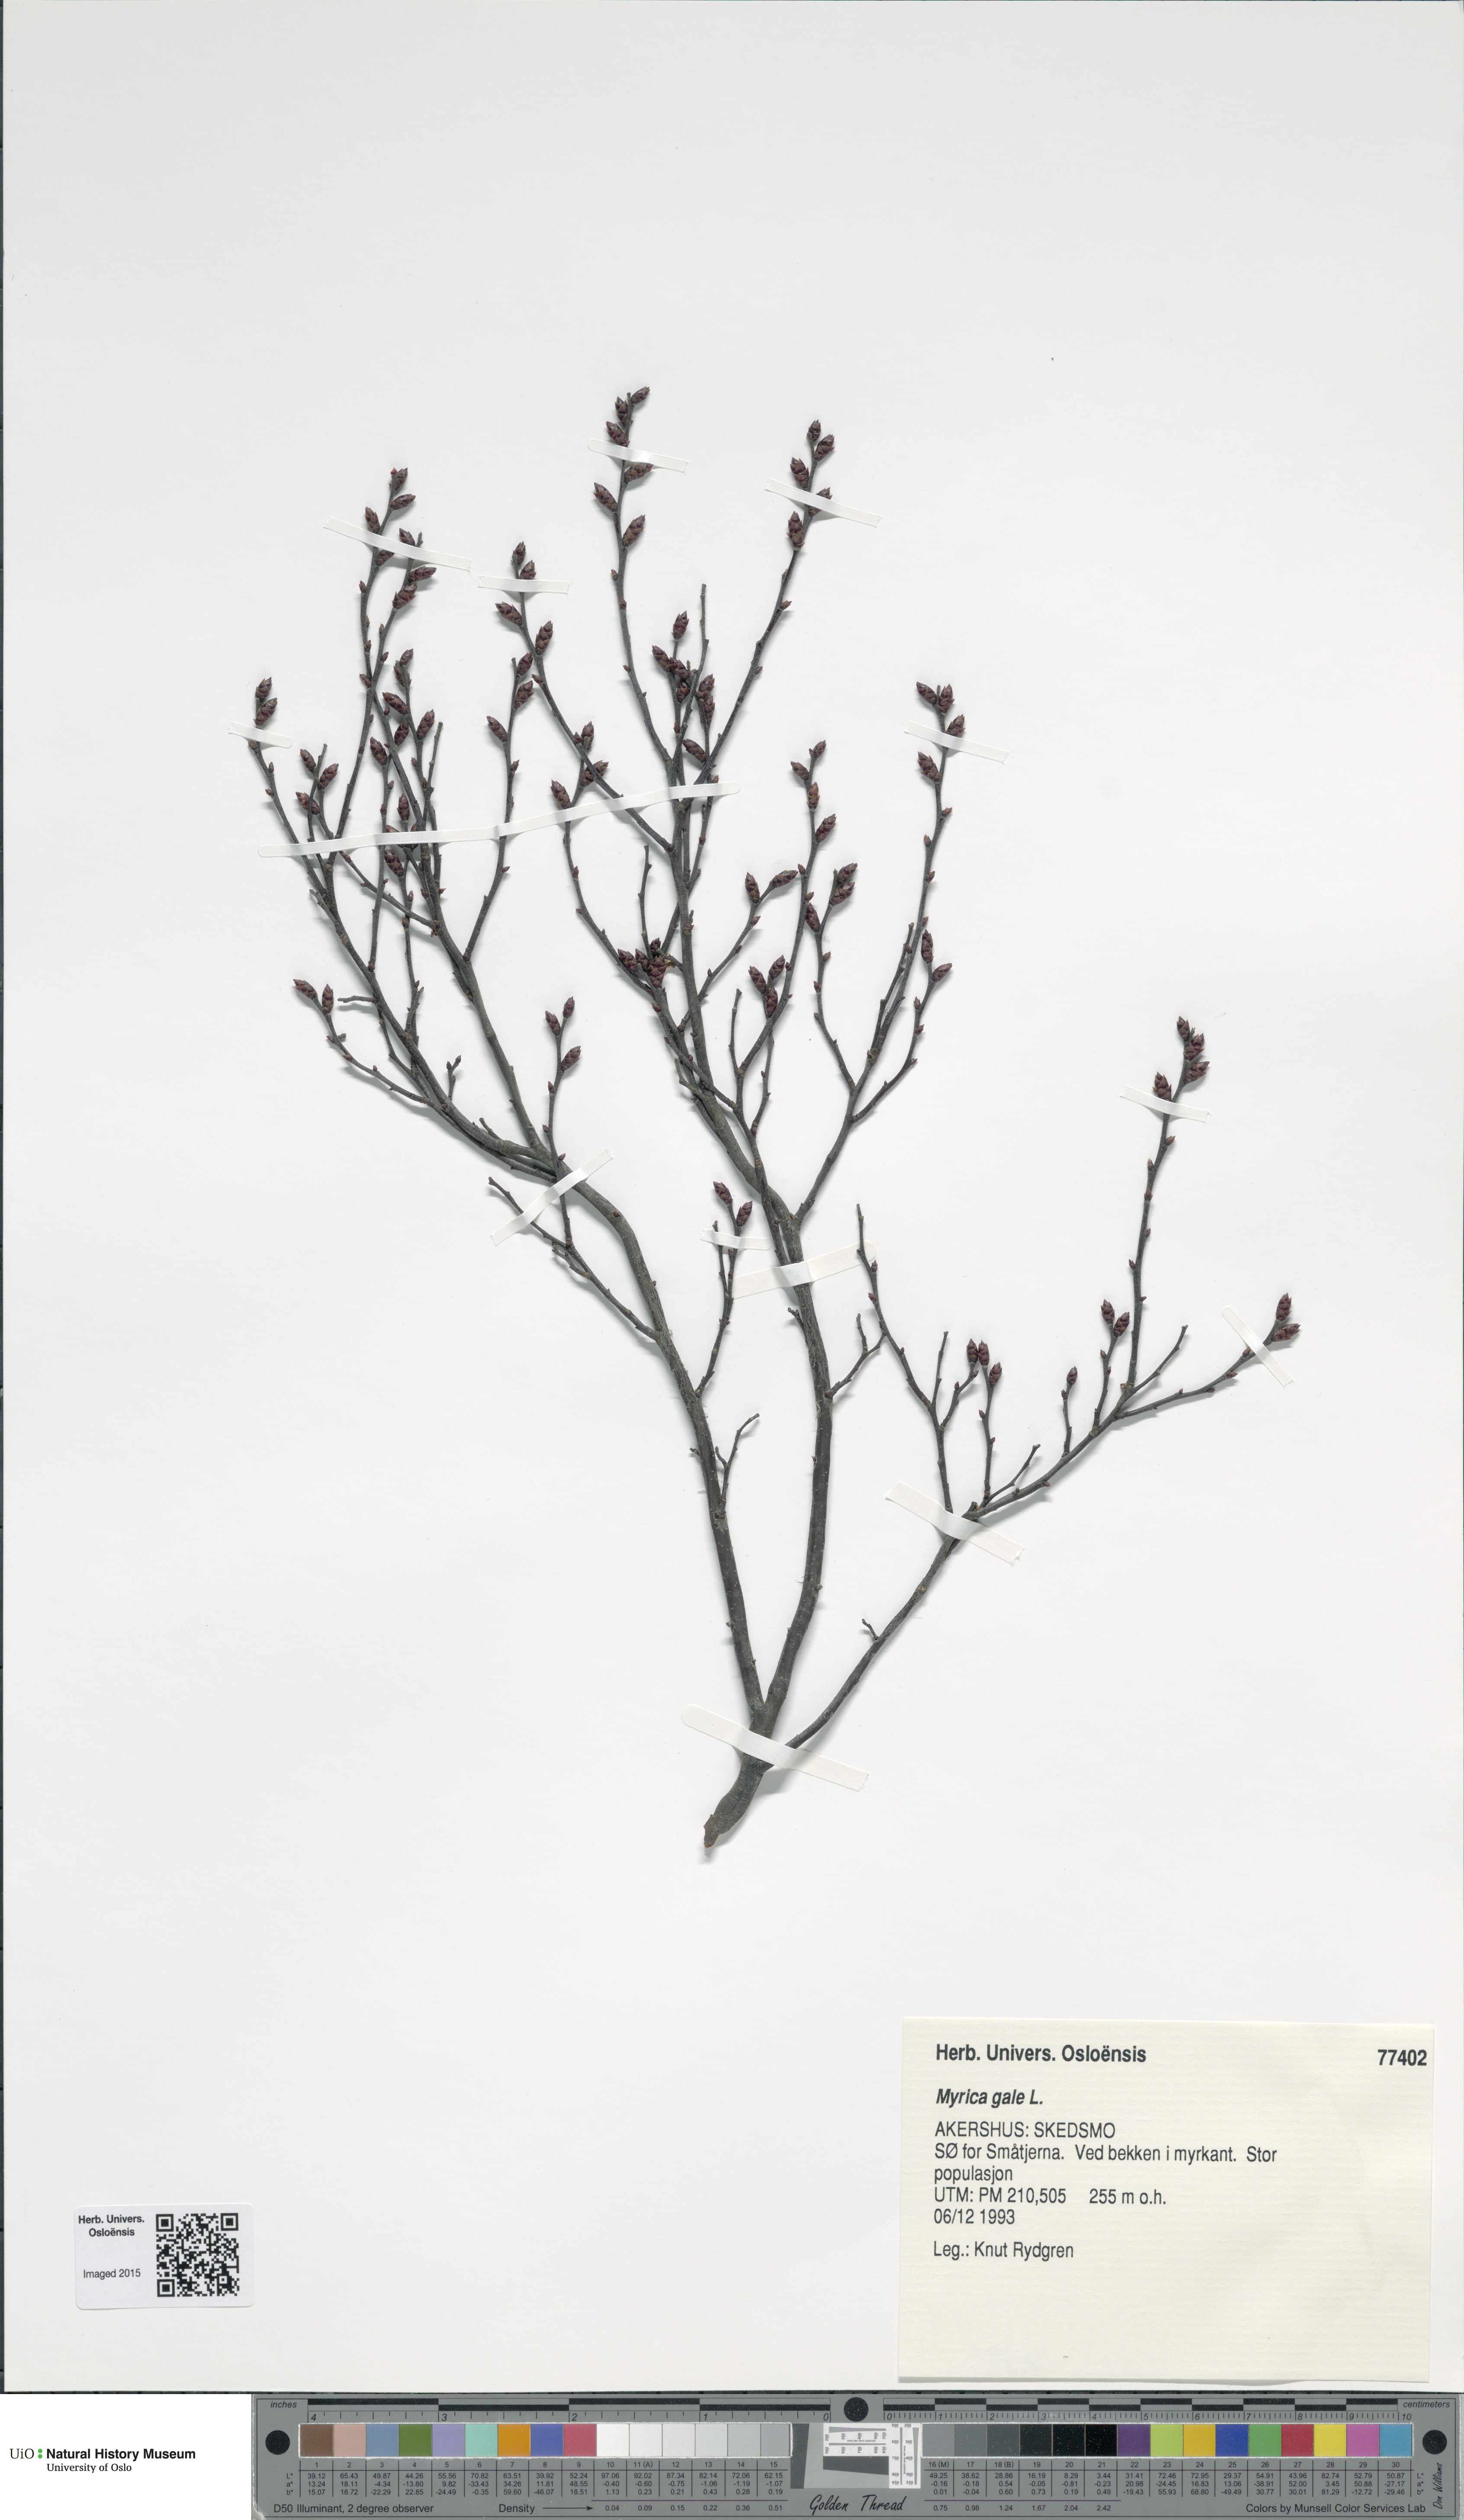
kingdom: Plantae
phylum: Tracheophyta
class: Magnoliopsida
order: Fagales
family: Myricaceae
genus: Myrica
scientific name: Myrica gale
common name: Sweet gale
